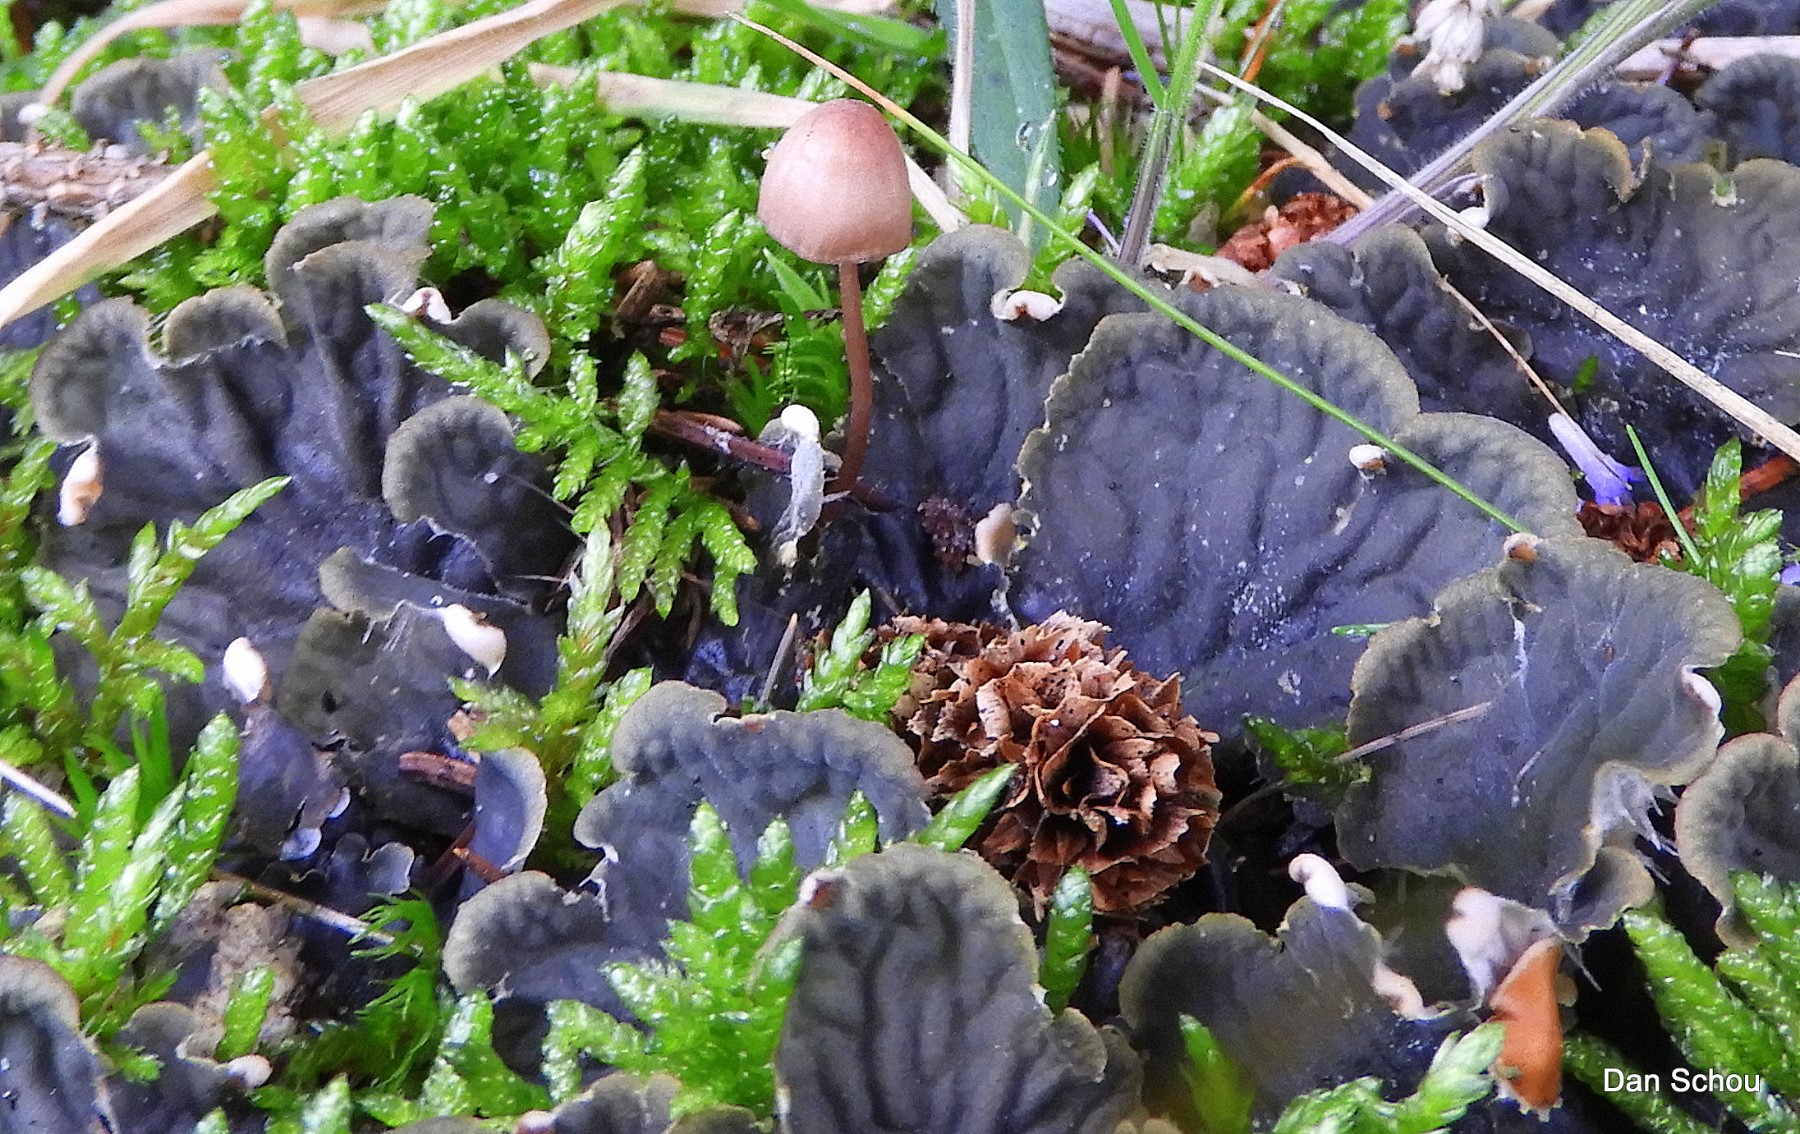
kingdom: Fungi
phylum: Ascomycota
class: Lecanoromycetes
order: Peltigerales
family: Peltigeraceae
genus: Peltigera
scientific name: Peltigera membranacea
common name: tynd skjoldlav
